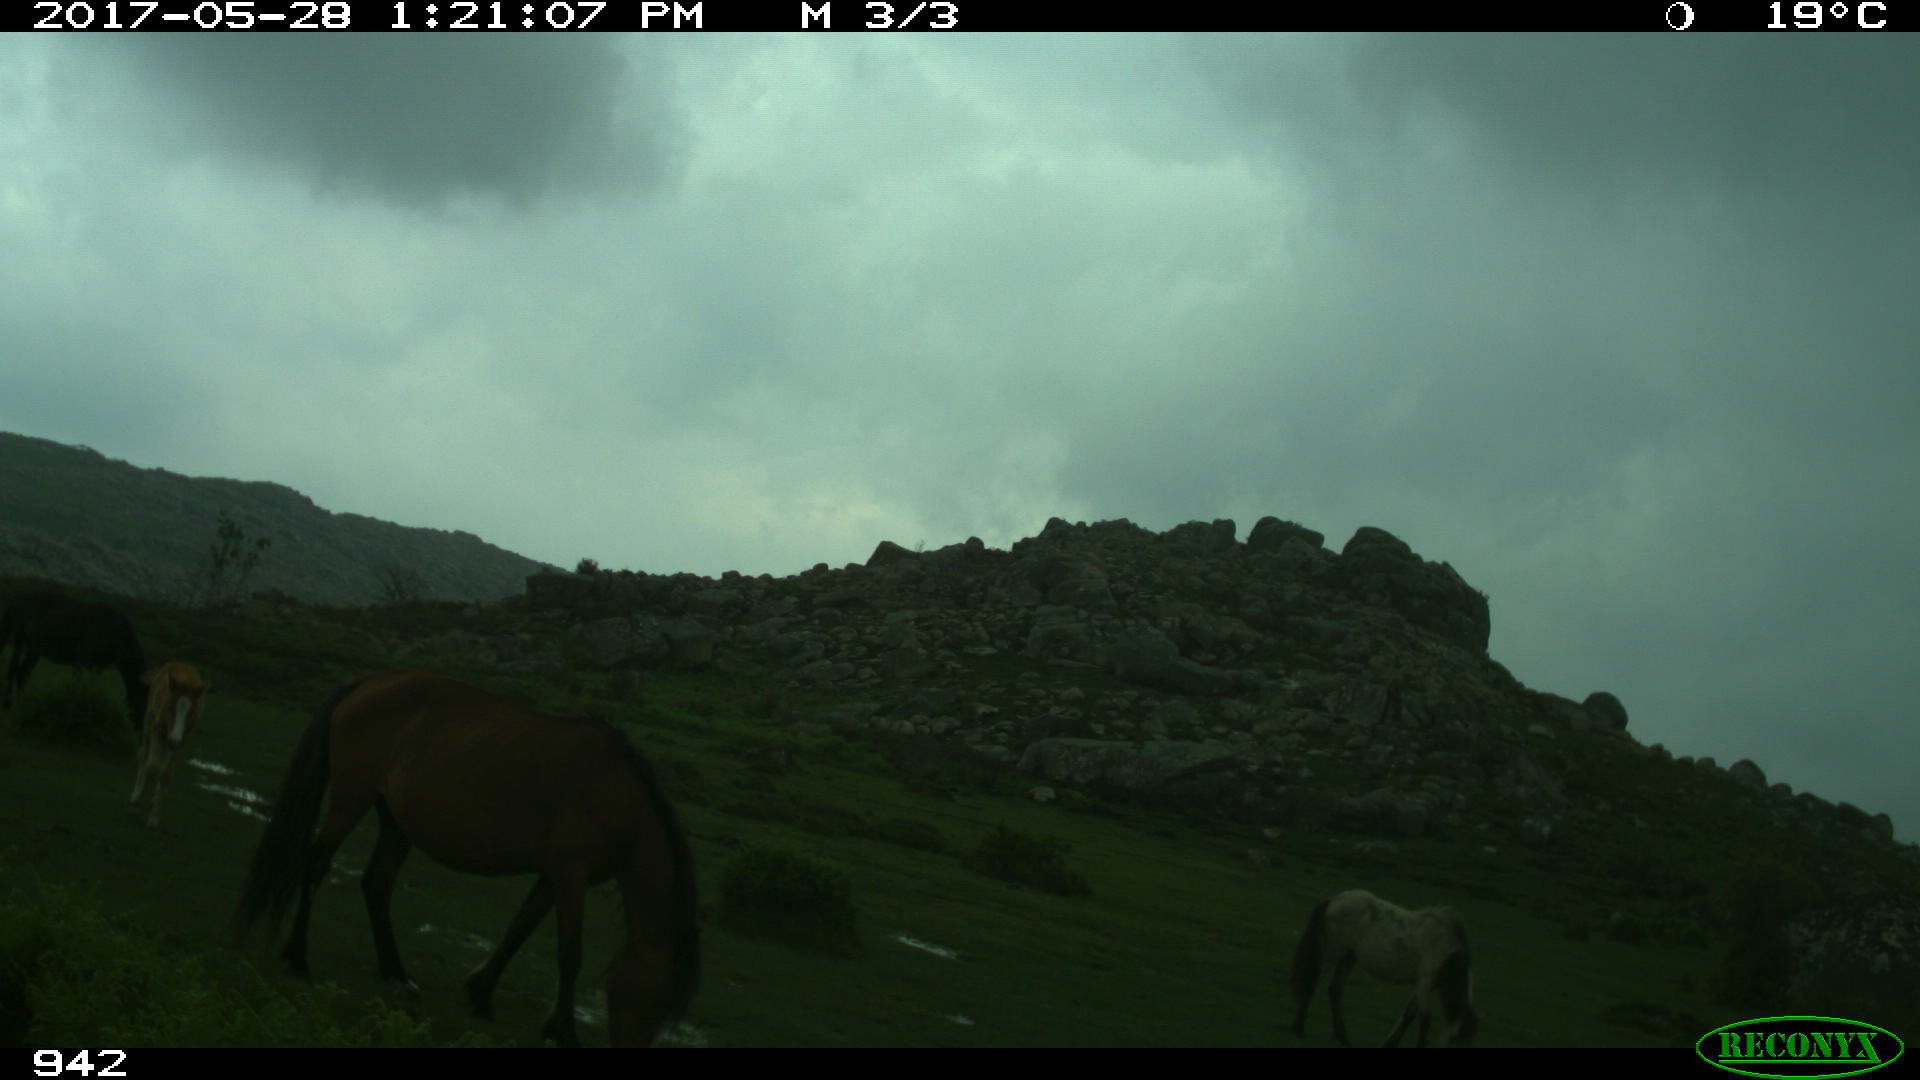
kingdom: Animalia
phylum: Chordata
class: Mammalia
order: Perissodactyla
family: Equidae
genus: Equus
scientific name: Equus caballus
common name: Horse
